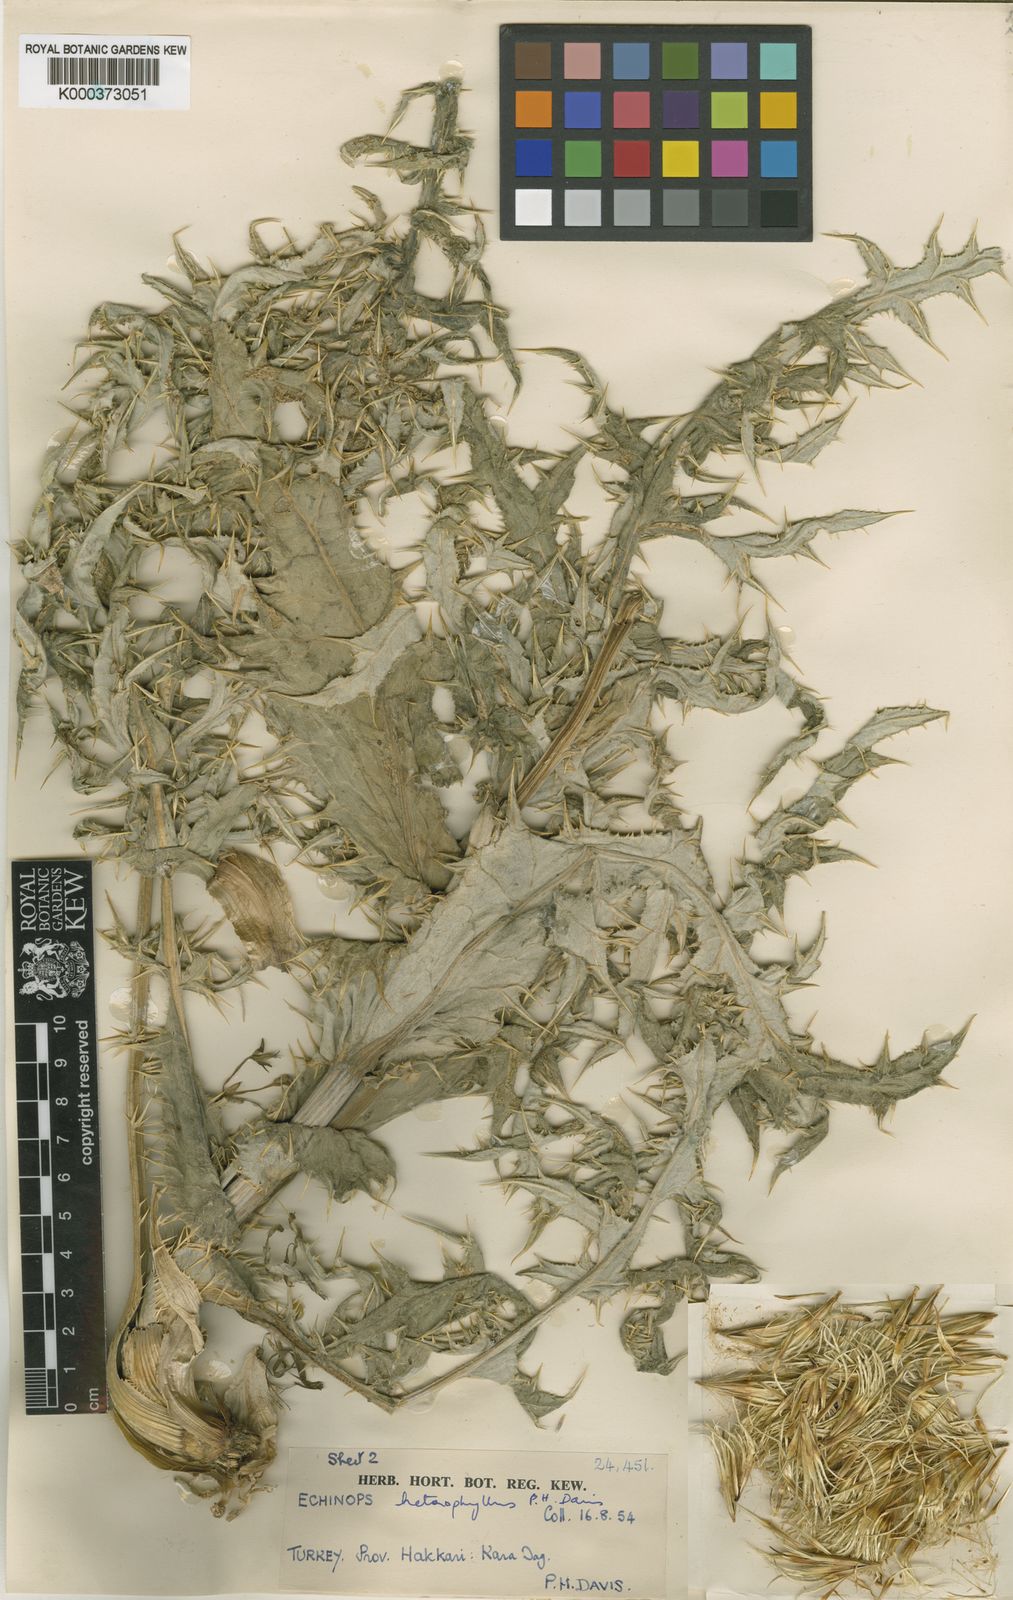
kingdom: Plantae
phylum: Tracheophyta
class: Magnoliopsida
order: Asterales
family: Asteraceae
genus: Echinops
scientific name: Echinops heterophyllus
